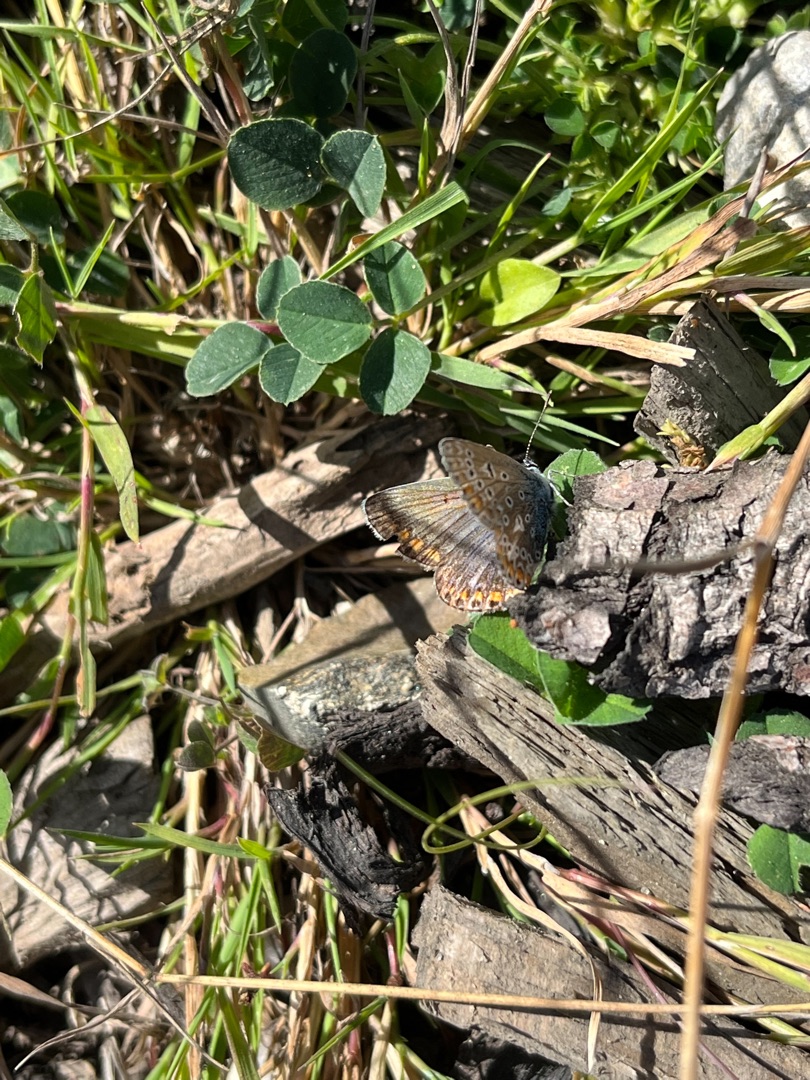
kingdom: Animalia
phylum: Arthropoda
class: Insecta
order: Lepidoptera
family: Lycaenidae
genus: Polyommatus
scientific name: Polyommatus icarus
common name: Almindelig blåfugl
